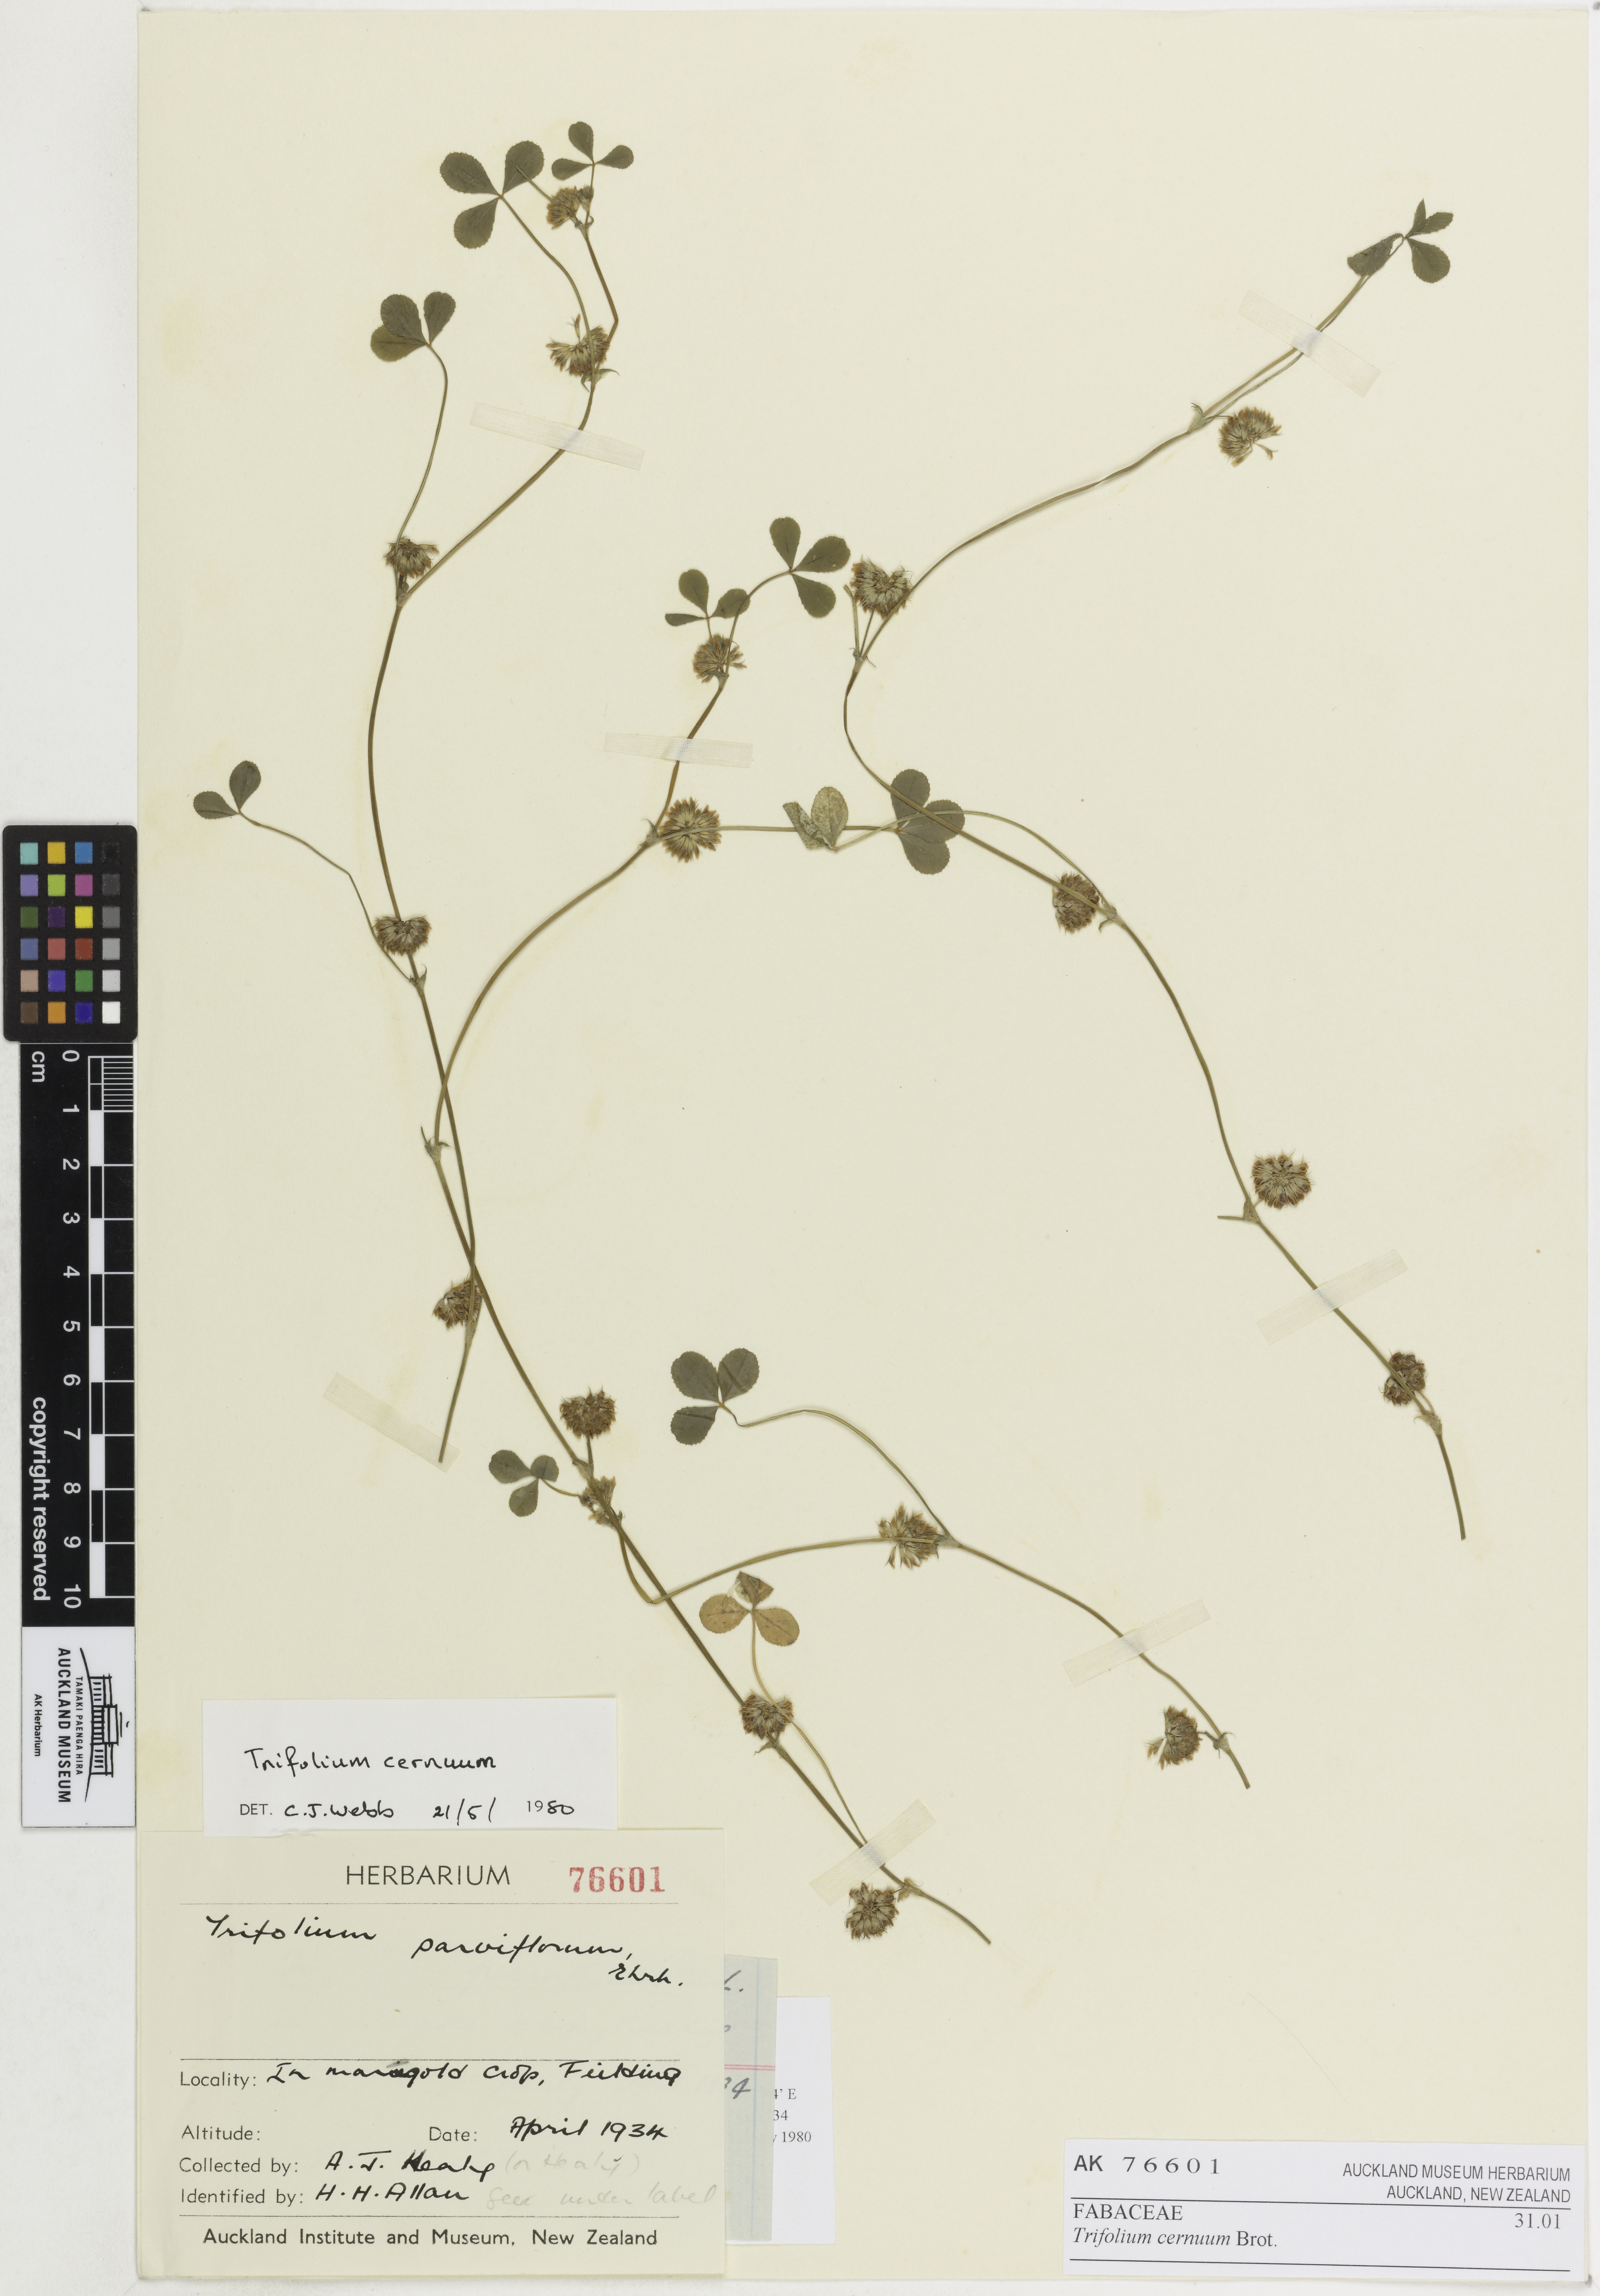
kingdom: Plantae
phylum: Tracheophyta
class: Magnoliopsida
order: Fabales
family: Fabaceae
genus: Trifolium
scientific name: Trifolium cernuum
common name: Nodding clover
